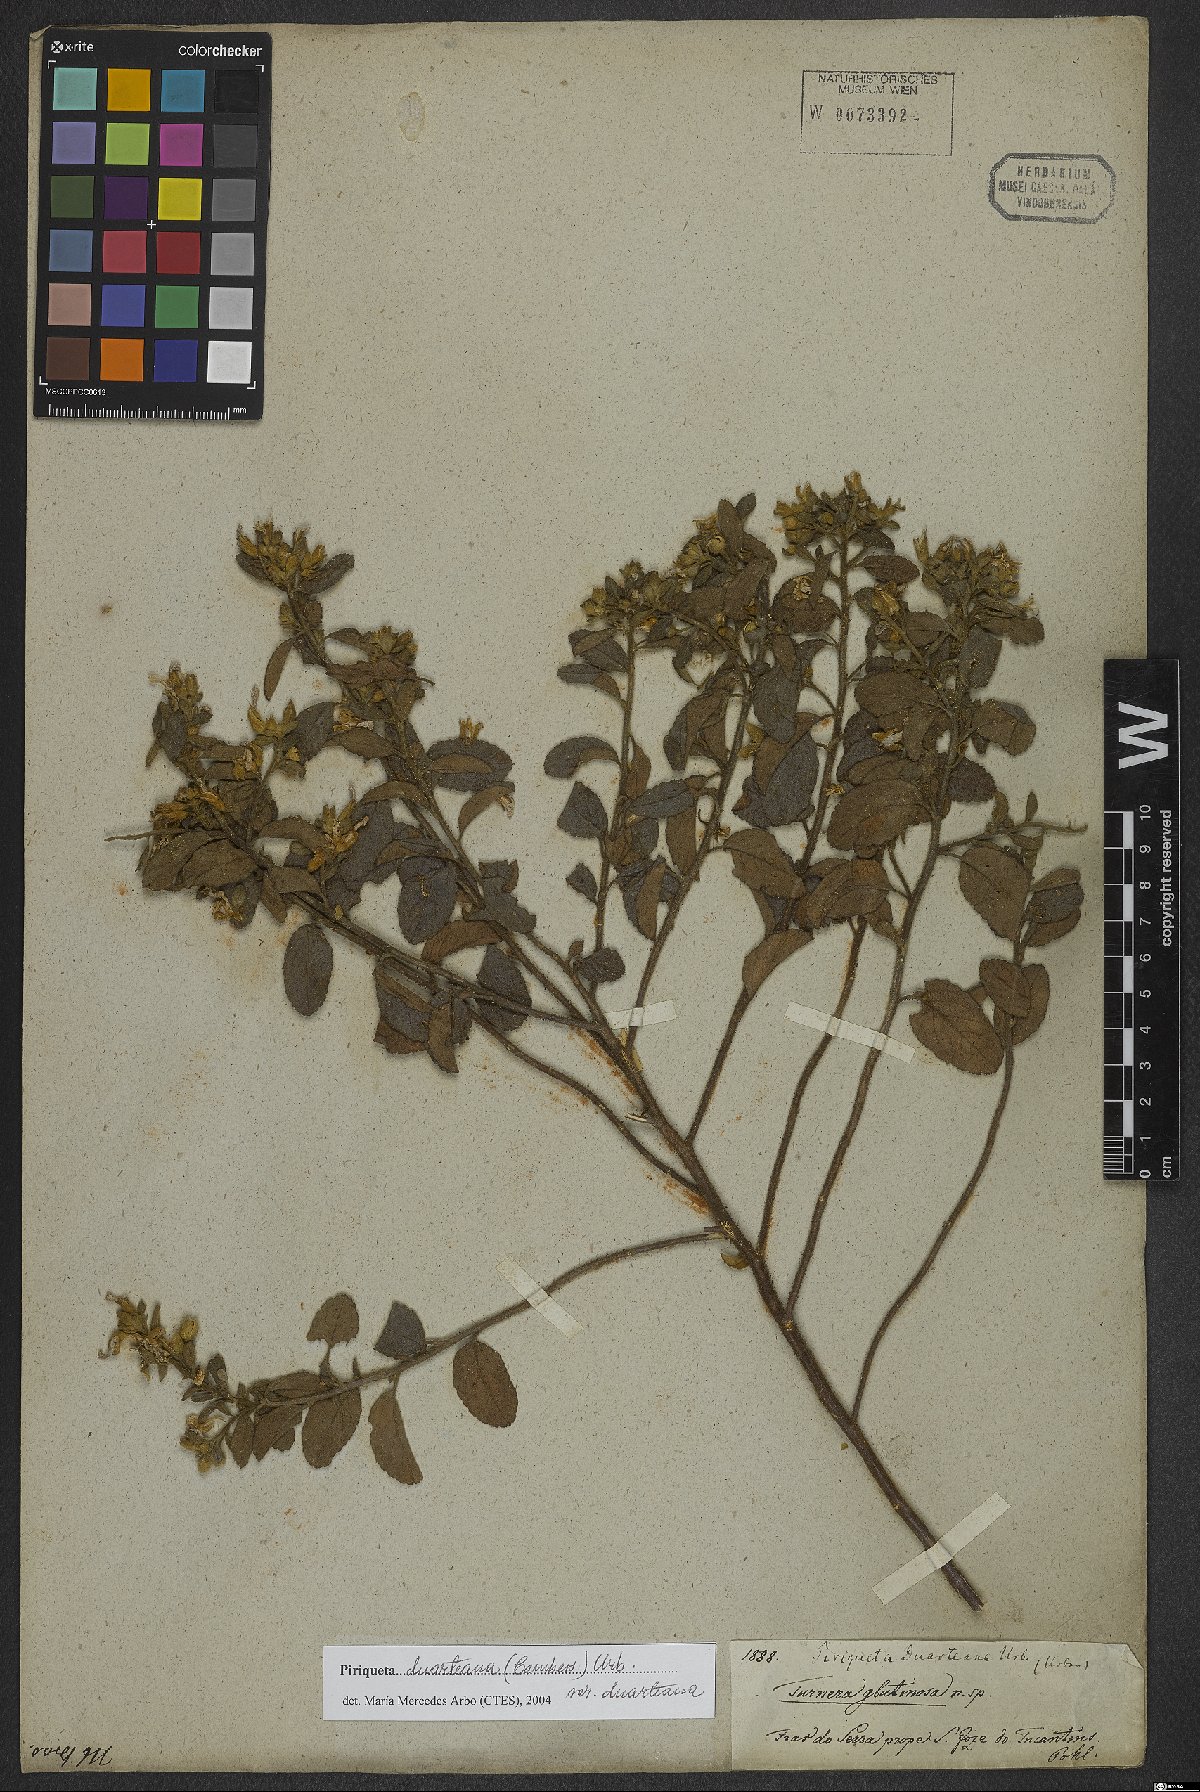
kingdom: Plantae
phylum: Tracheophyta
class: Magnoliopsida
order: Malpighiales
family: Turneraceae
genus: Piriqueta
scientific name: Piriqueta duarteana
